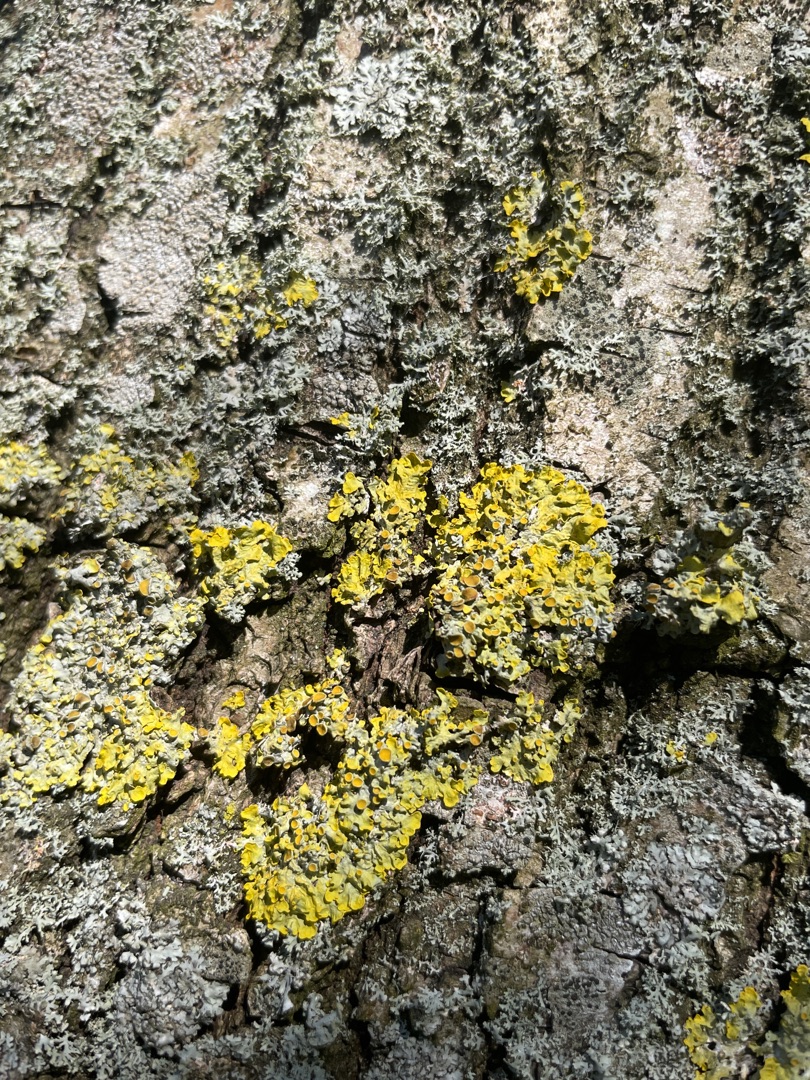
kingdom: Fungi
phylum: Ascomycota
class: Lecanoromycetes
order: Teloschistales
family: Teloschistaceae
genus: Xanthoria
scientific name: Xanthoria parietina
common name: Almindelig væggelav
